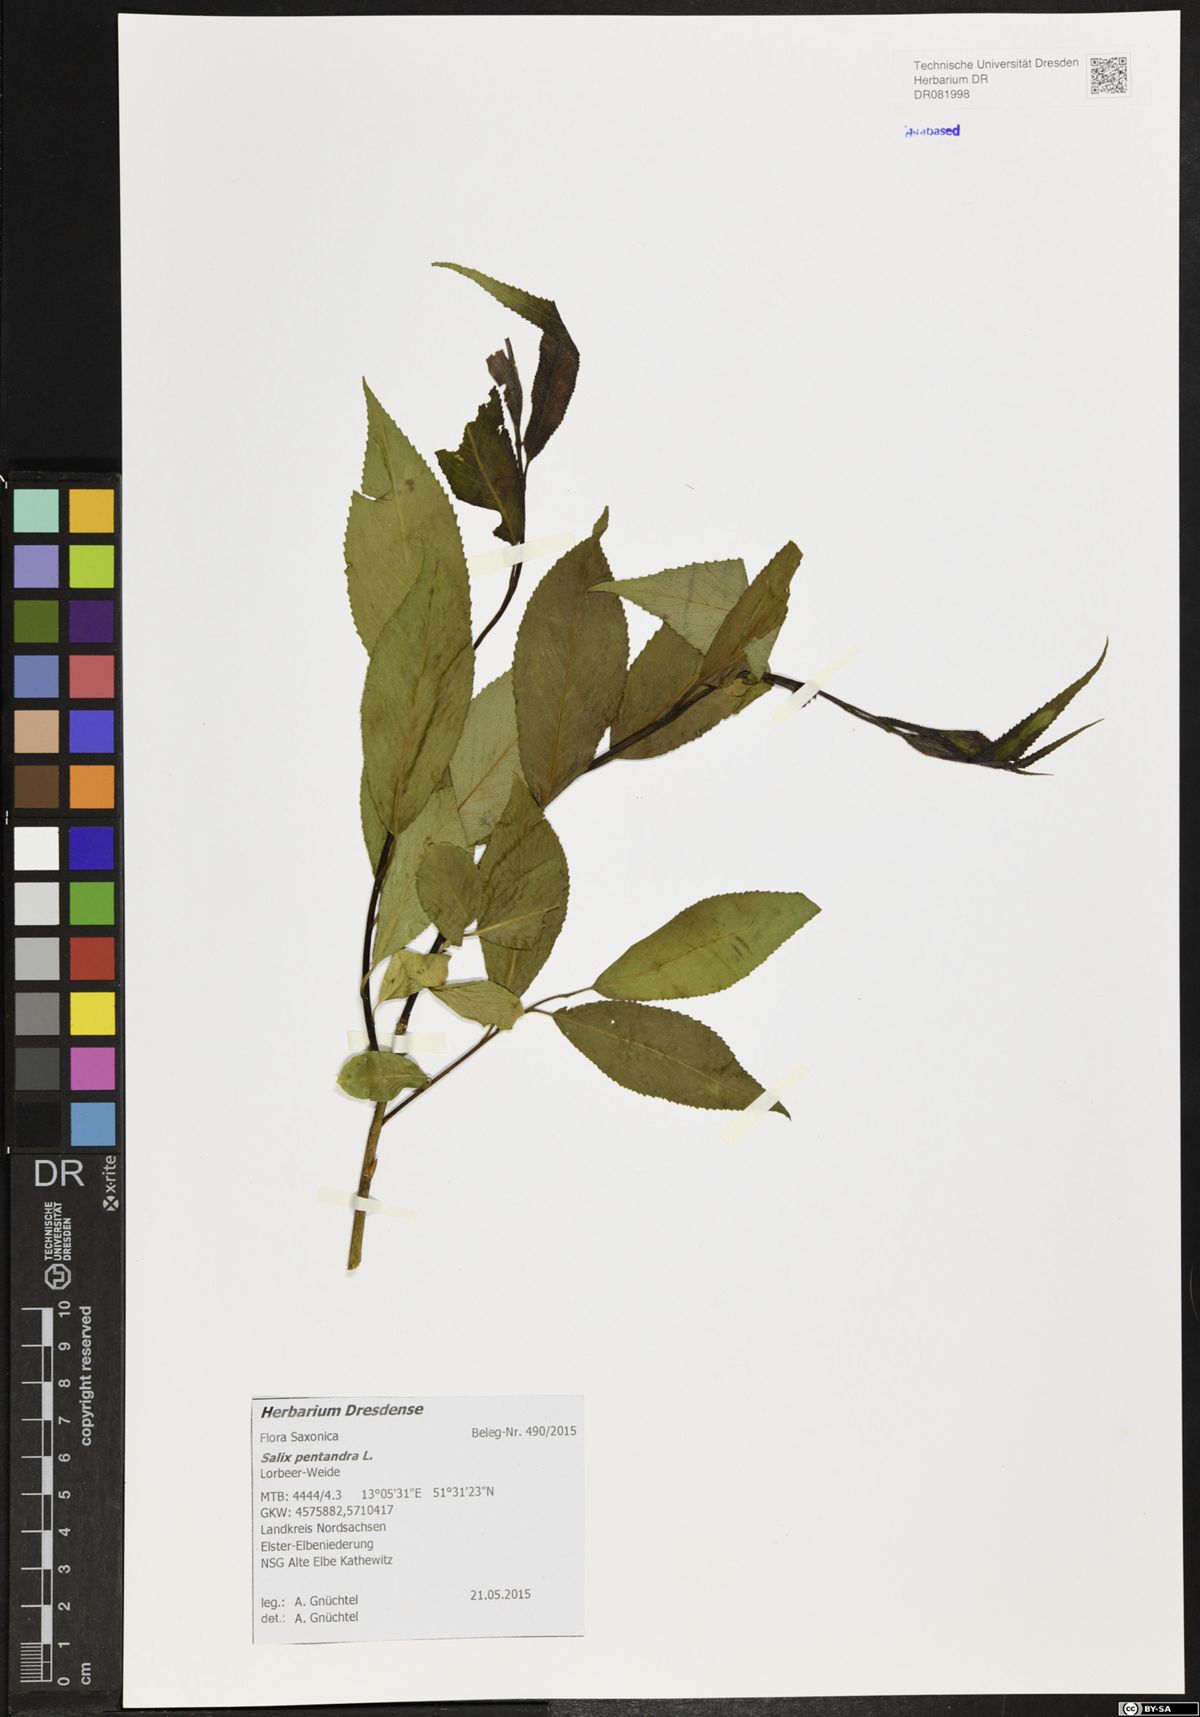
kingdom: Plantae
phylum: Tracheophyta
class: Magnoliopsida
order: Malpighiales
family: Salicaceae
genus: Salix
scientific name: Salix pentandra
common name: Bay willow
